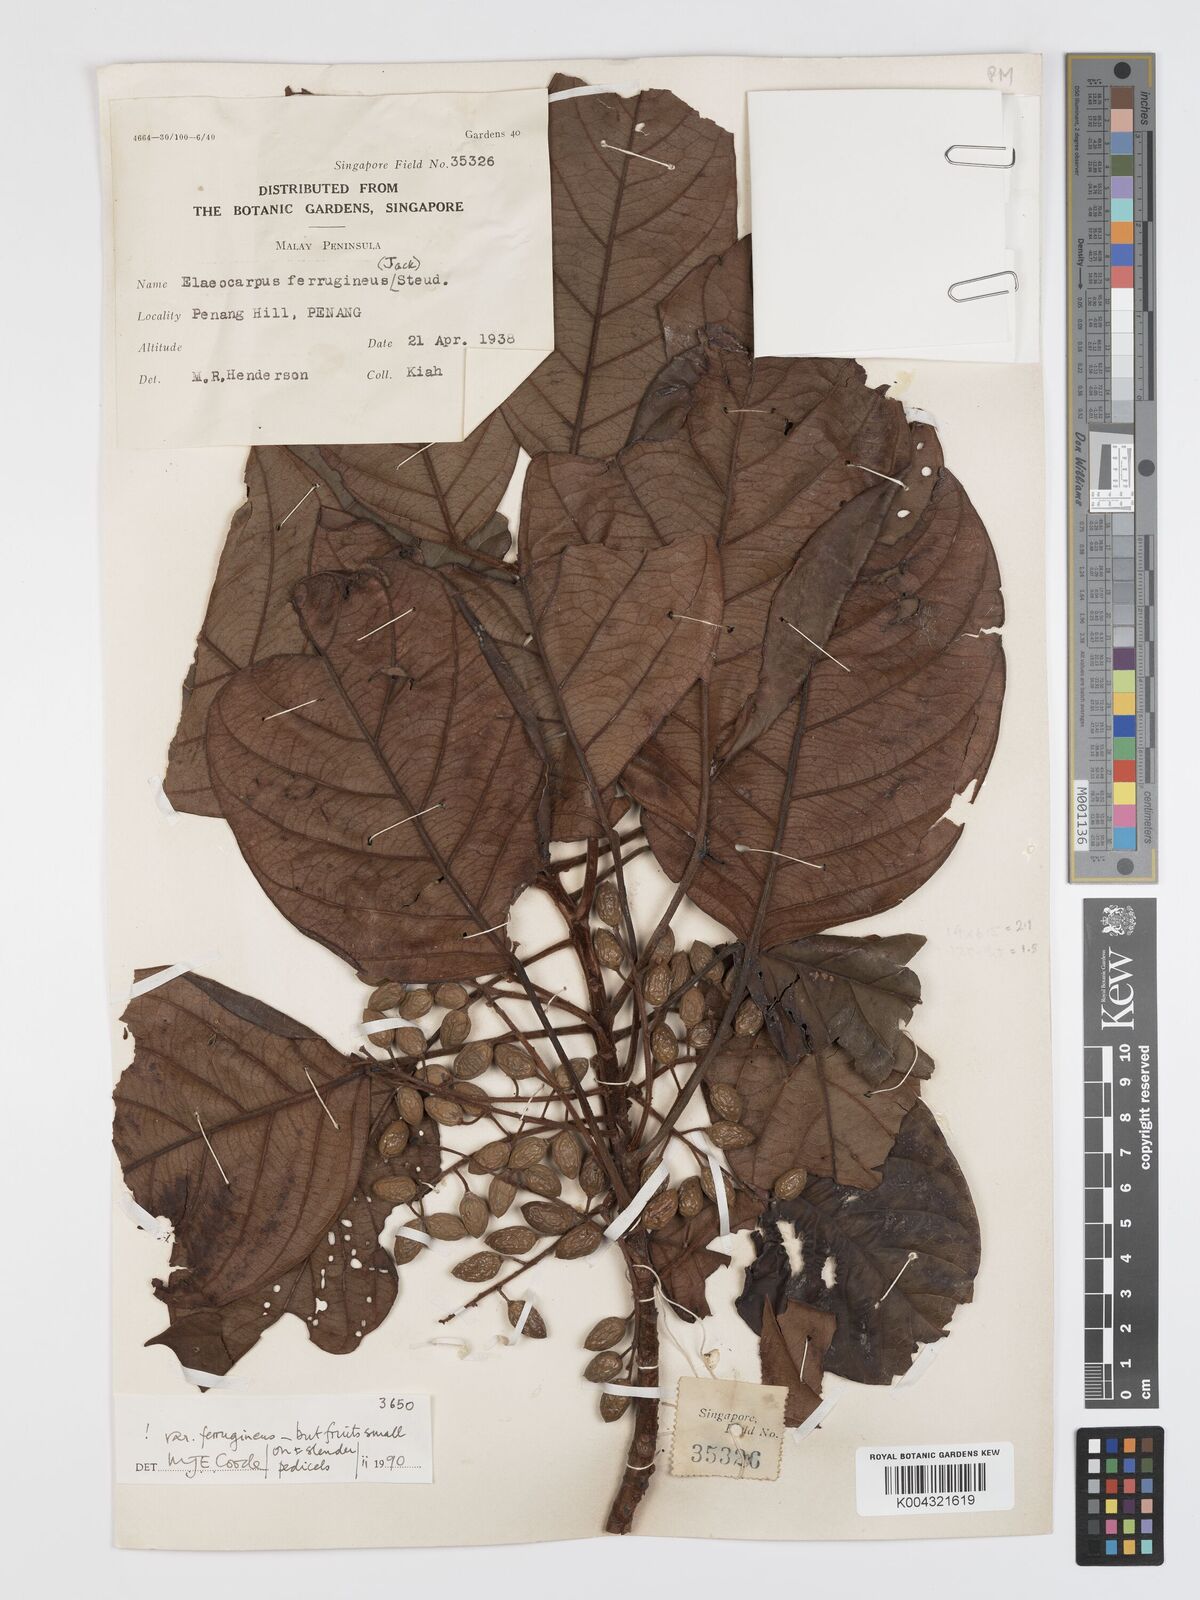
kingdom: Plantae
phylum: Tracheophyta
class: Magnoliopsida
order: Oxalidales
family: Elaeocarpaceae
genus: Elaeocarpus
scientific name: Elaeocarpus ferrugineus
